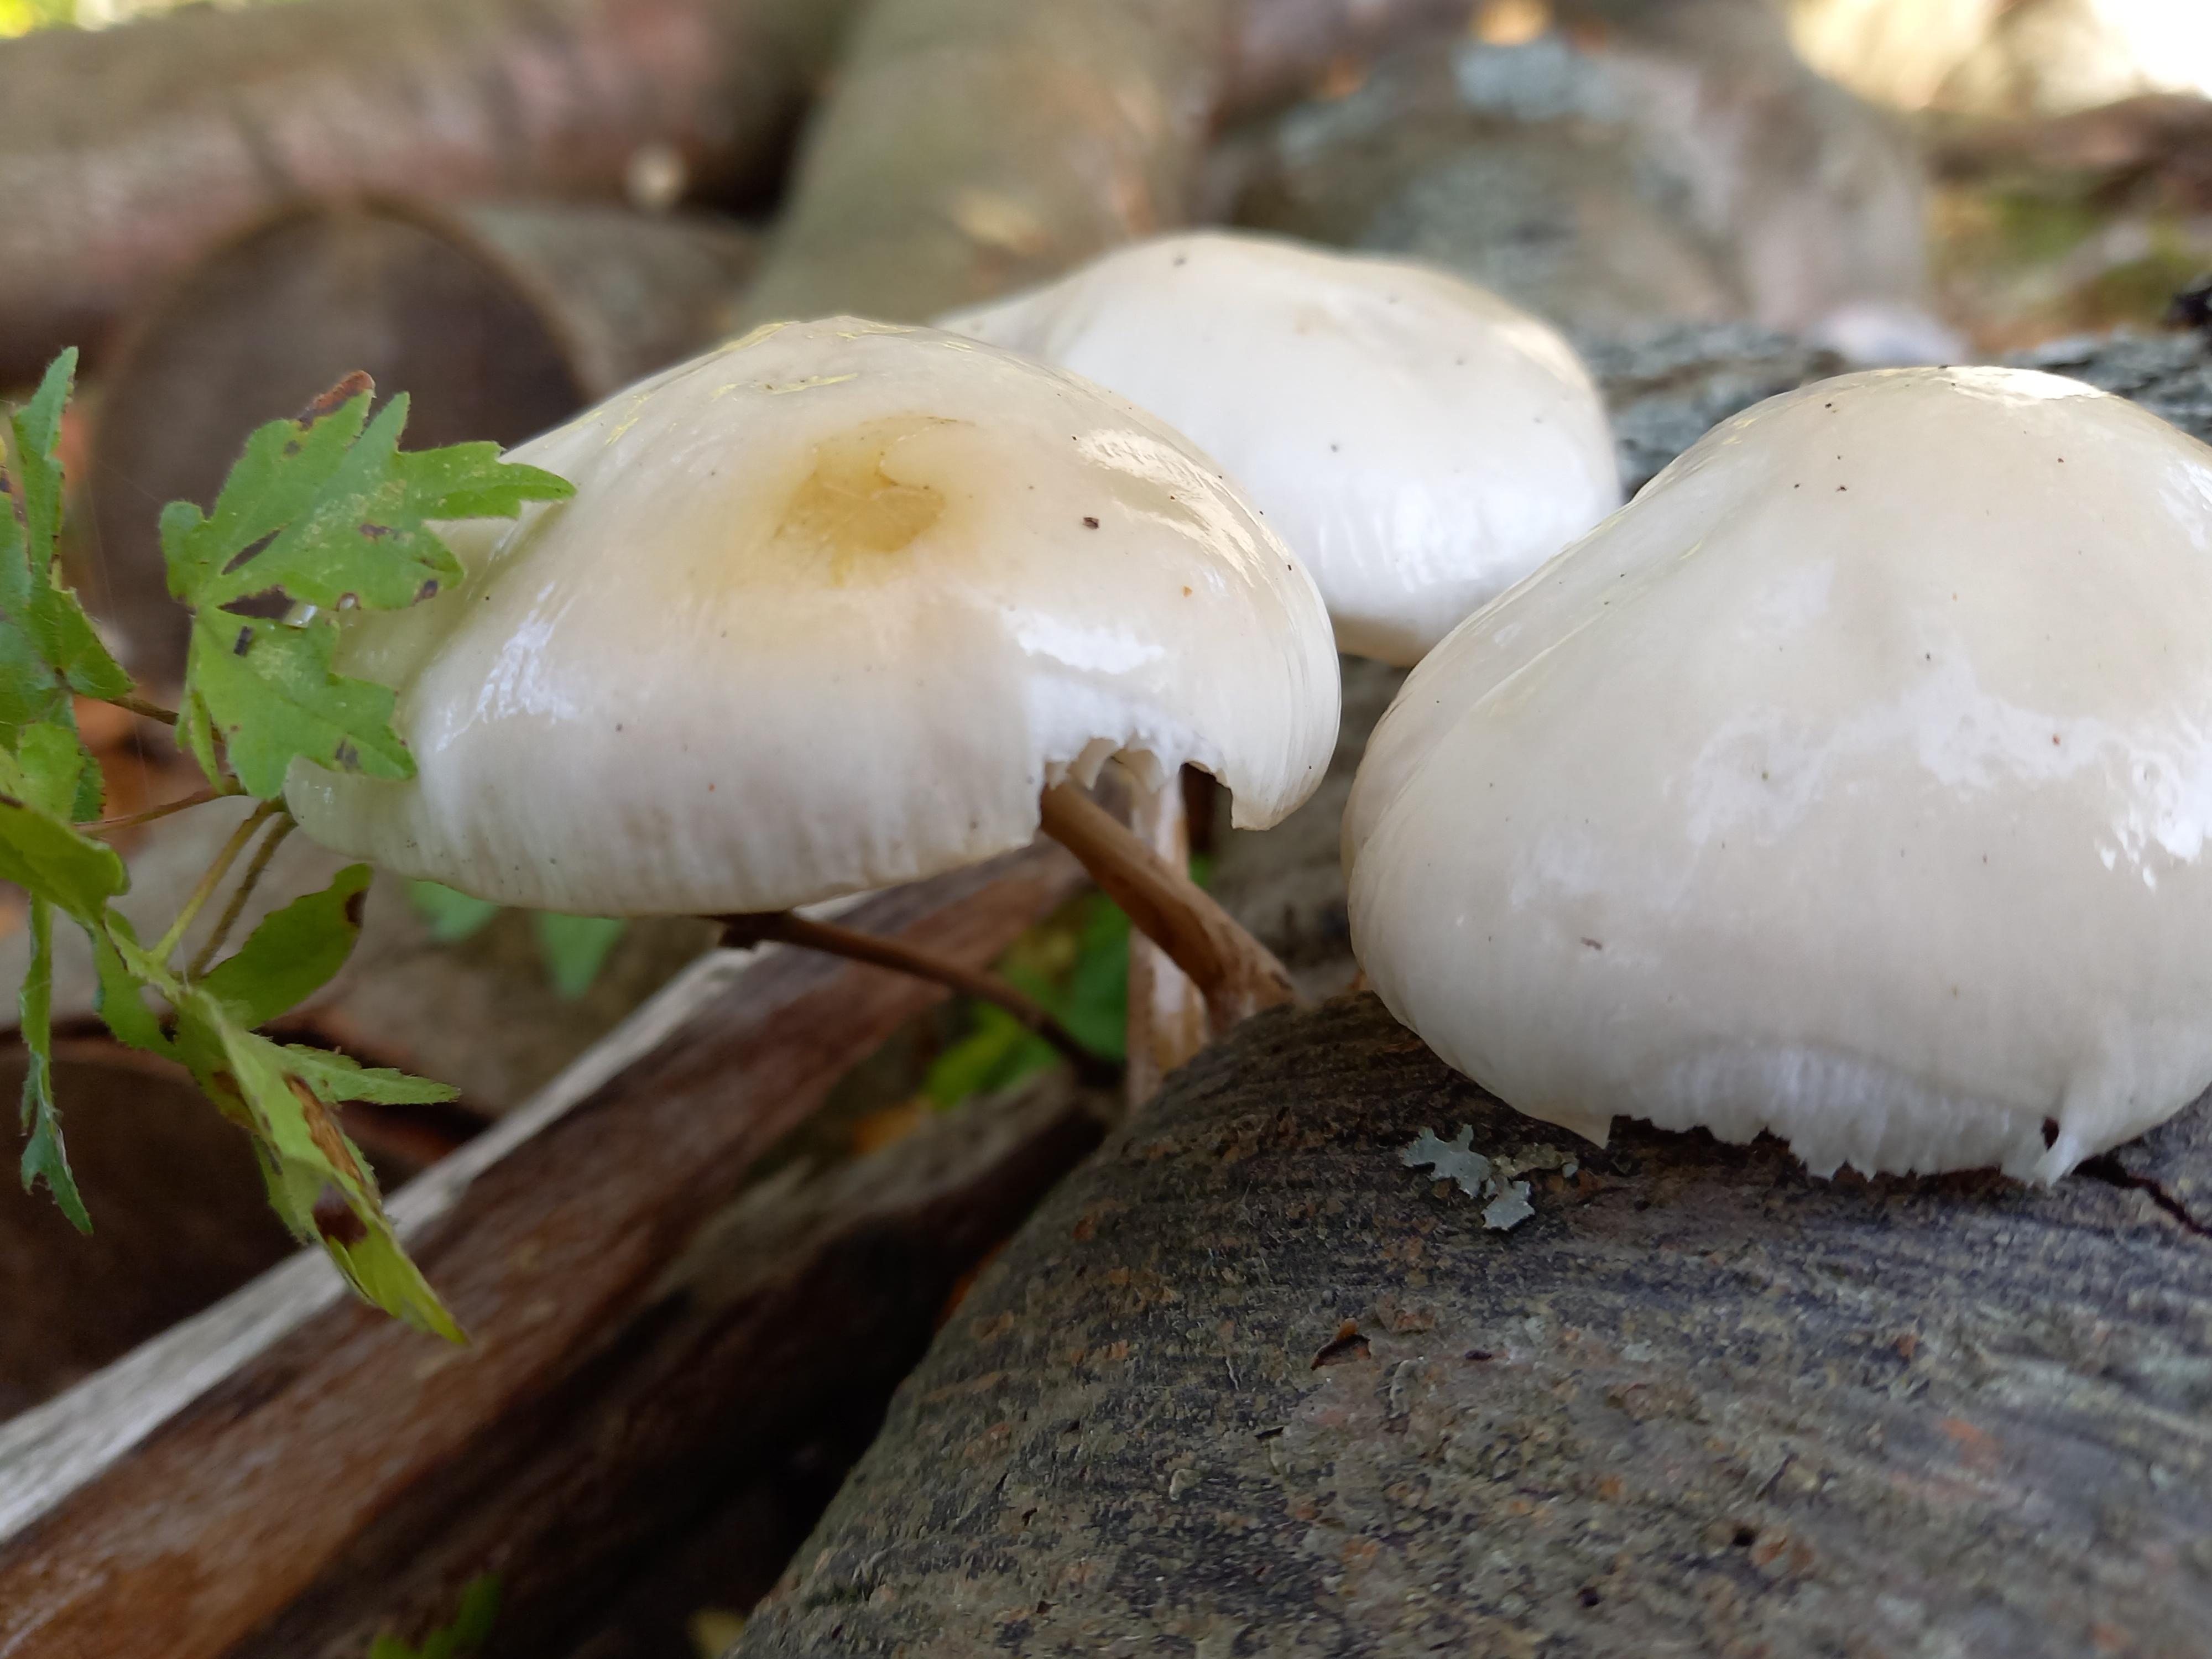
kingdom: Fungi
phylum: Basidiomycota
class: Agaricomycetes
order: Agaricales
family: Physalacriaceae
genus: Mucidula
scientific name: Mucidula mucida
